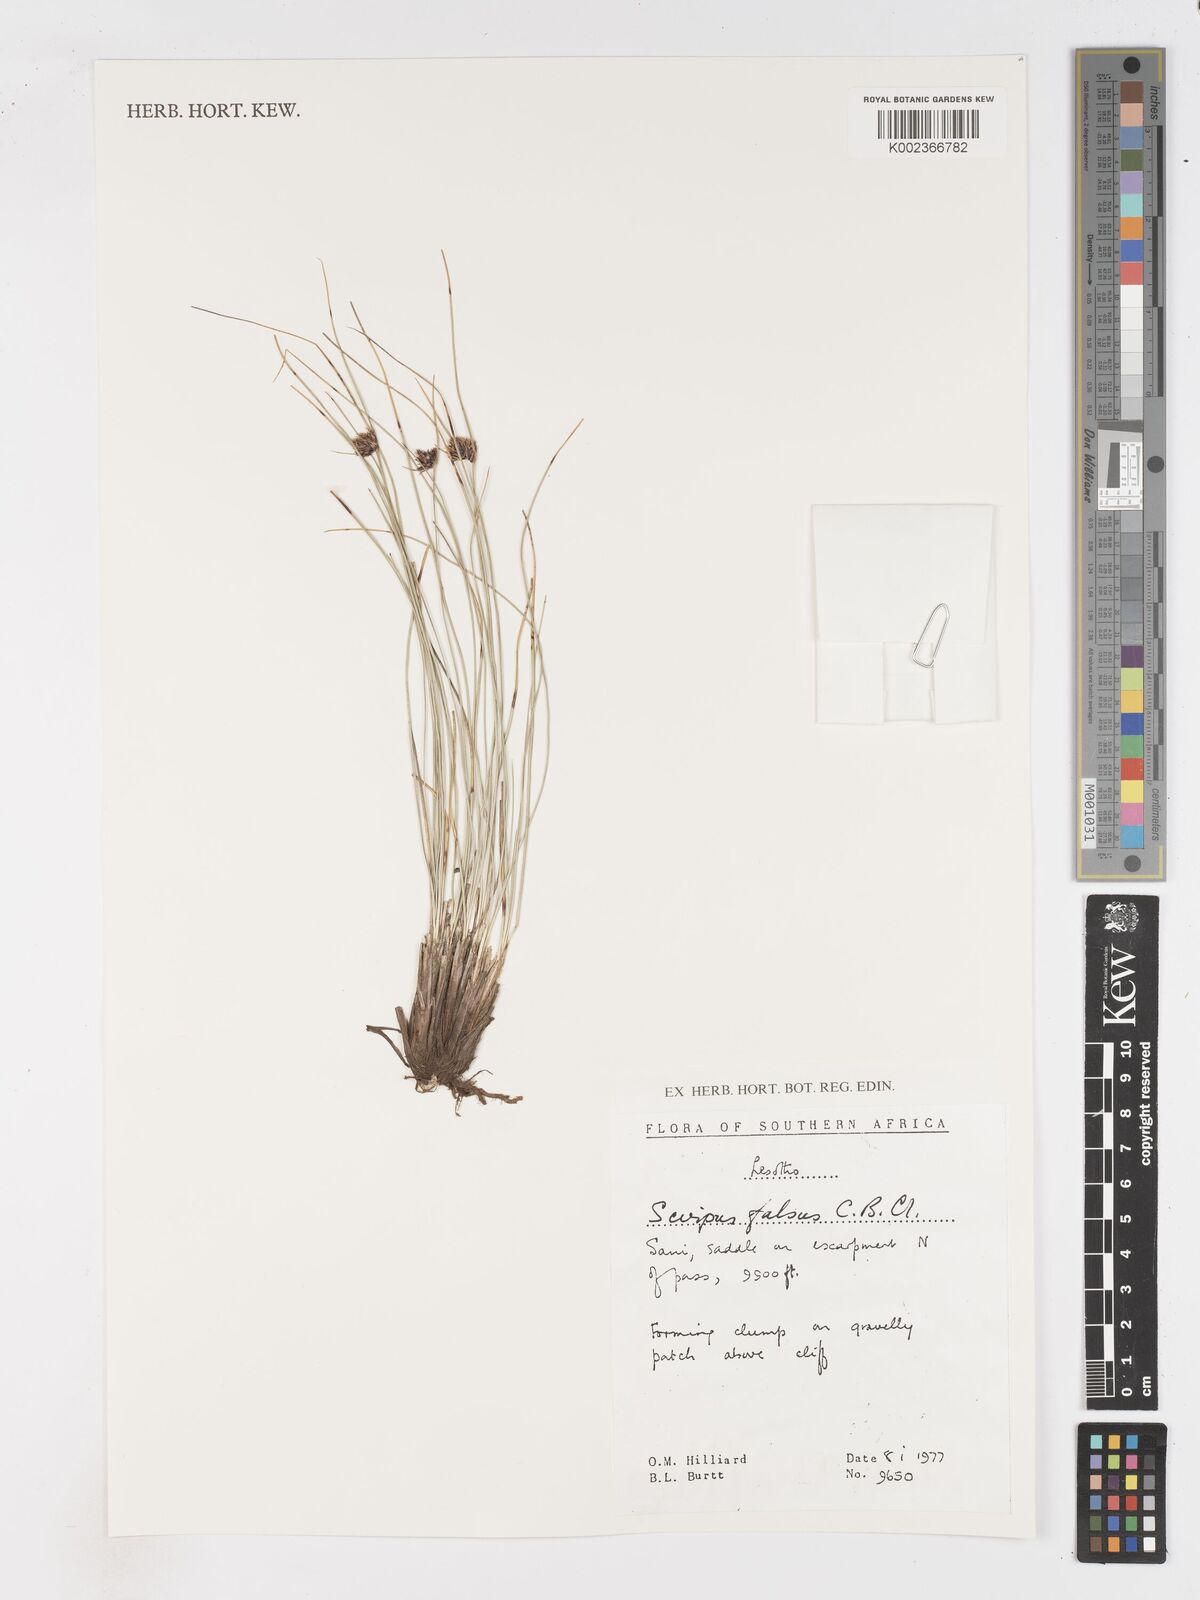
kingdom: Plantae
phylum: Tracheophyta
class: Liliopsida
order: Poales
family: Cyperaceae
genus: Dracoscirpoides
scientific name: Dracoscirpoides falsa
